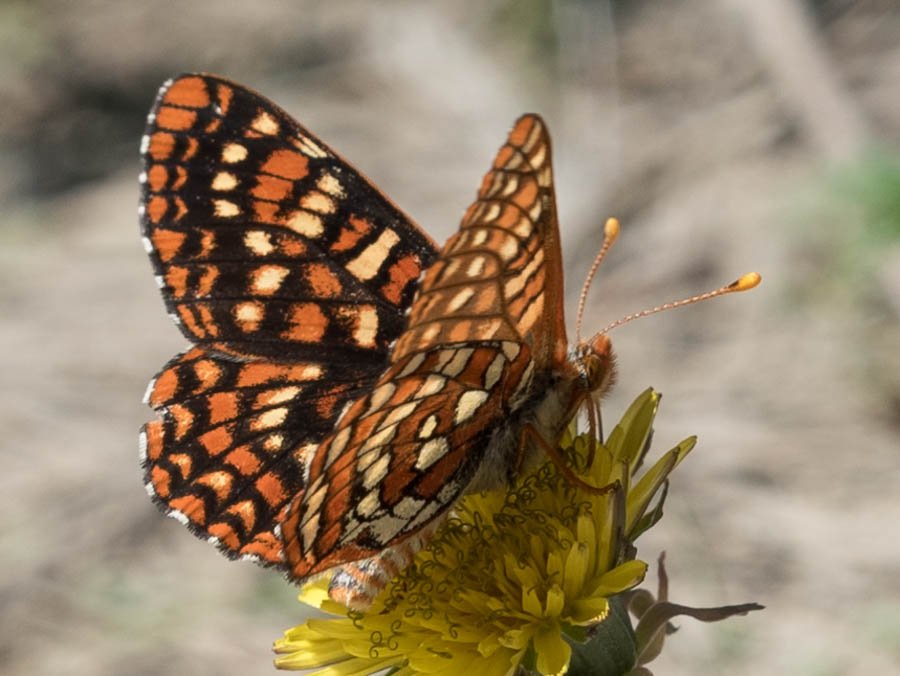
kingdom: Animalia
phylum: Arthropoda
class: Insecta
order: Lepidoptera
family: Nymphalidae
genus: Occidryas
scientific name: Occidryas anicia
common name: Anicia Checkerspot
